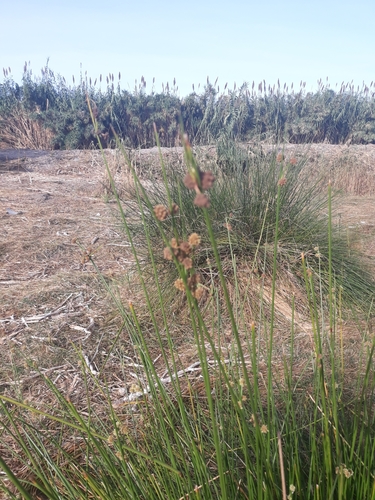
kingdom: Plantae
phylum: Tracheophyta
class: Liliopsida
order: Poales
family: Cyperaceae
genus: Scirpoides
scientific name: Scirpoides holoschoenus
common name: Round-headed club-rush
